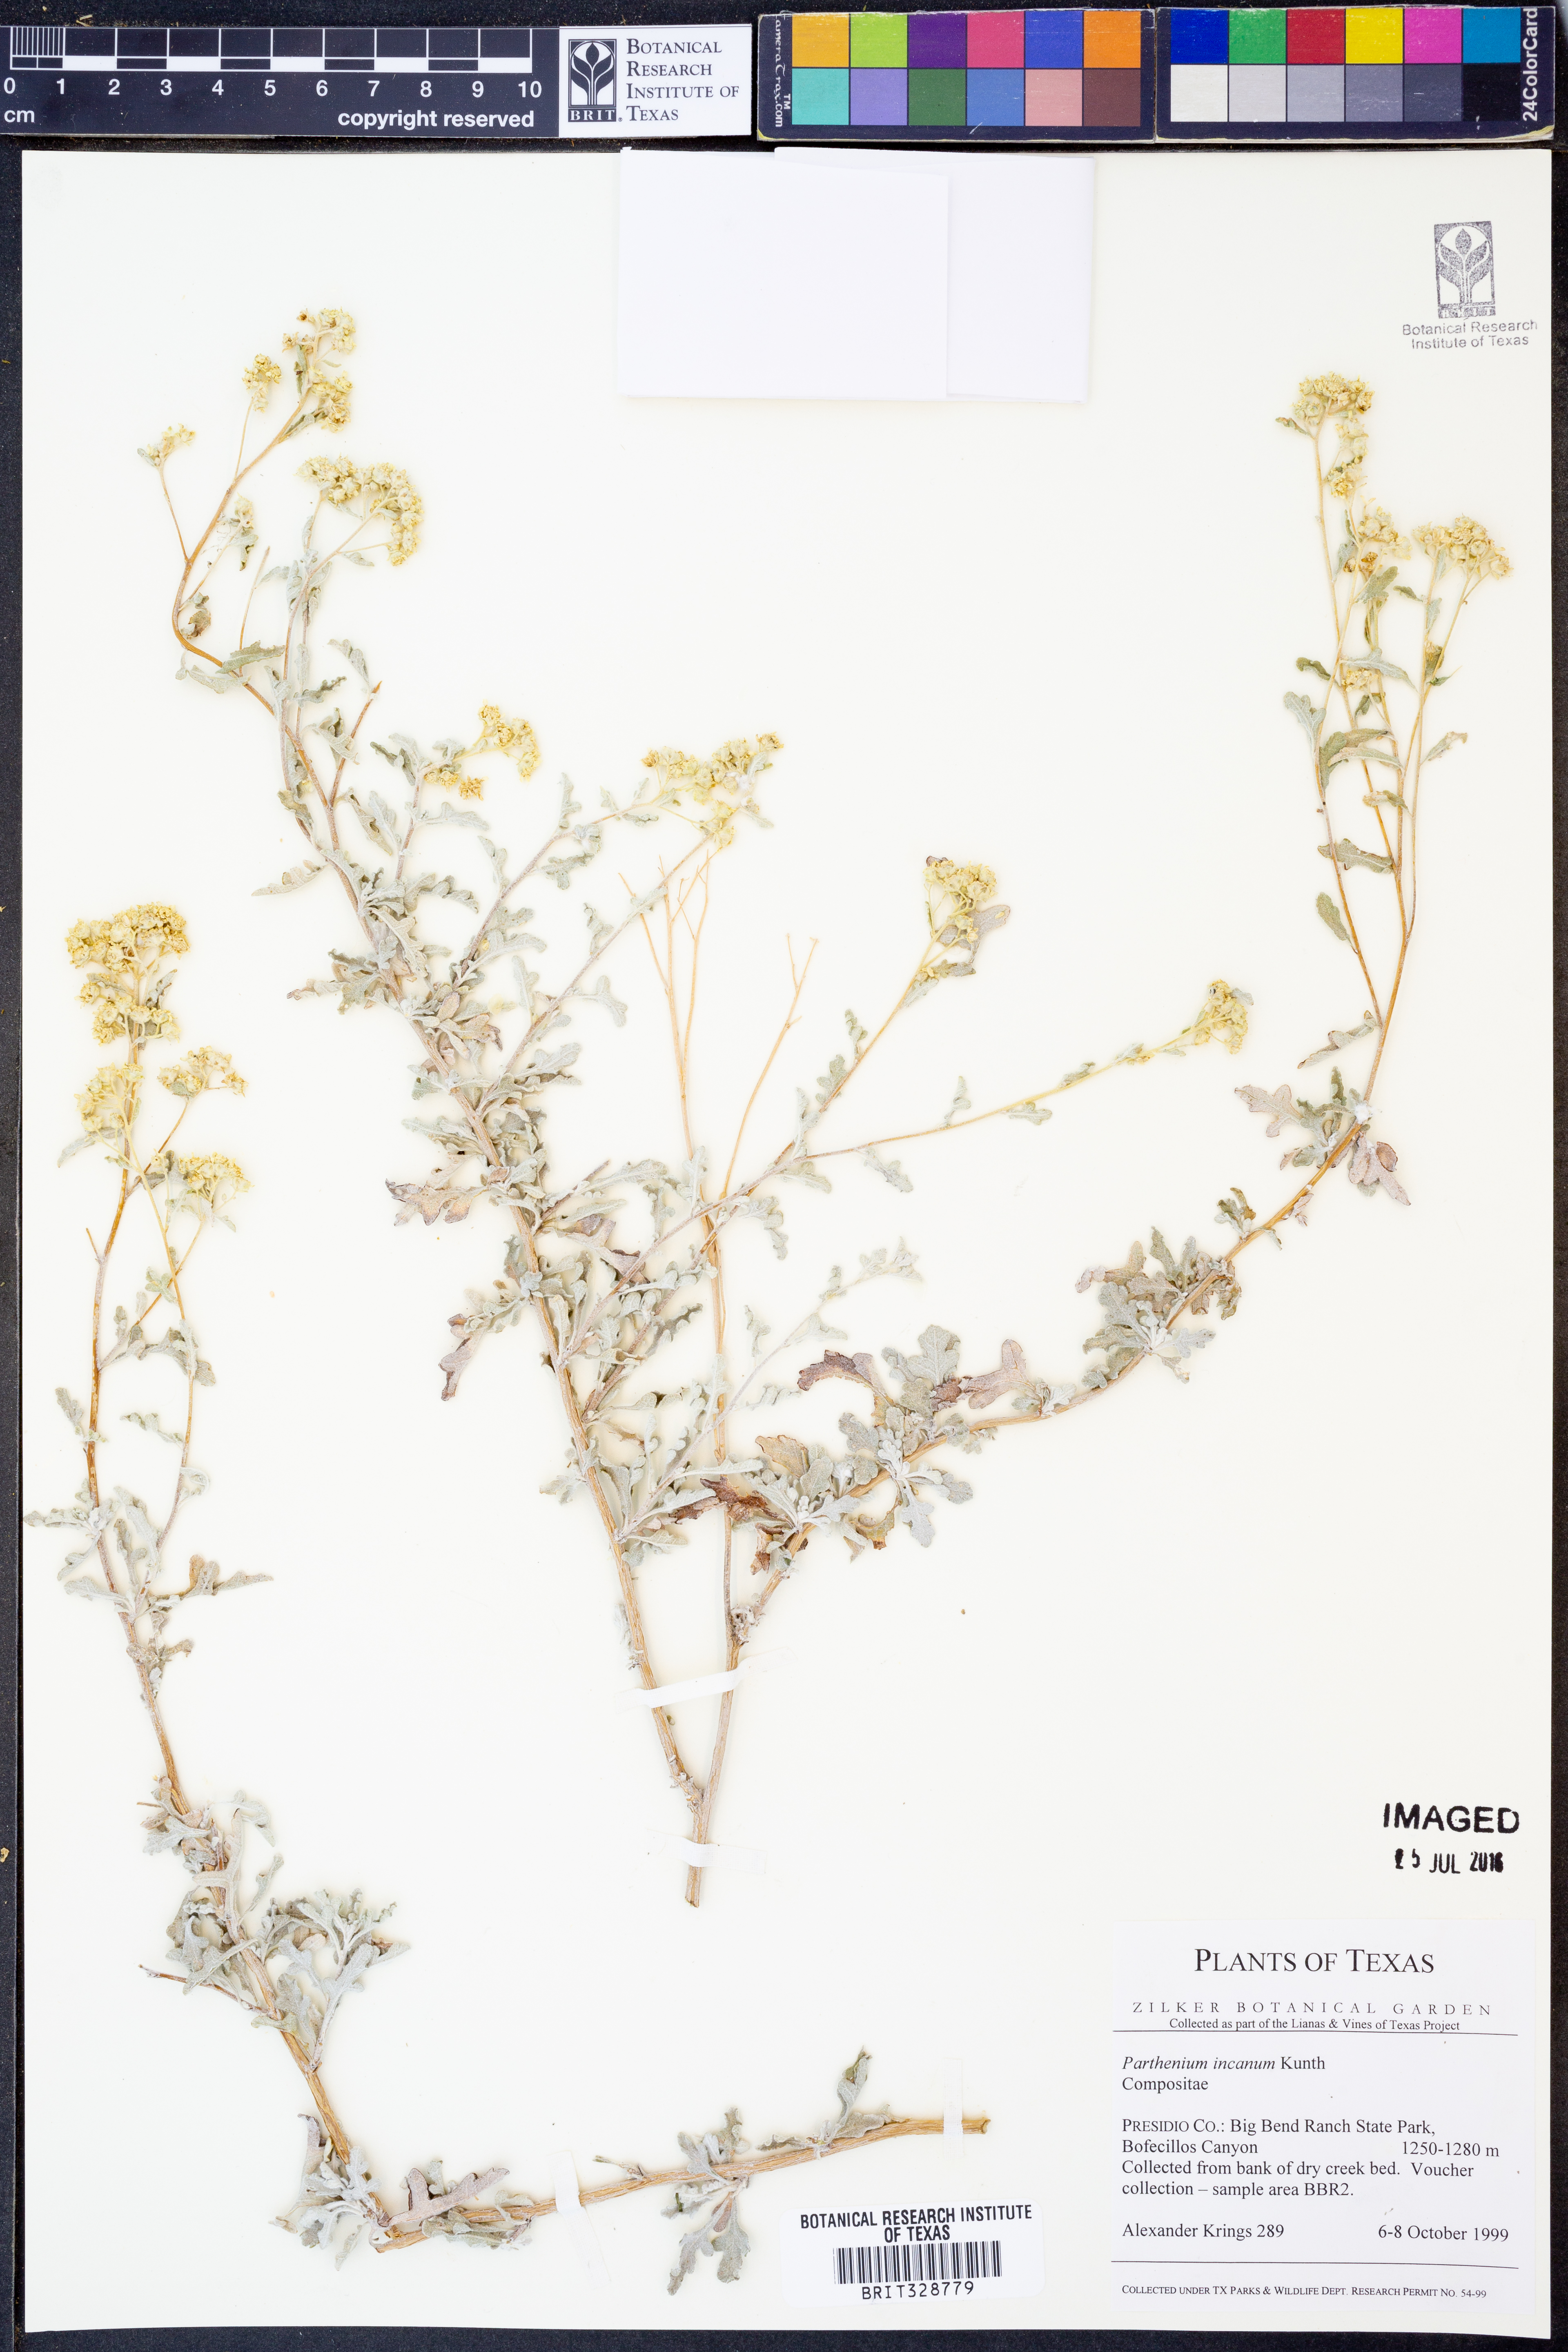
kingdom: Plantae
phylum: Tracheophyta
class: Magnoliopsida
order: Asterales
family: Asteraceae
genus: Parthenium
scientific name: Parthenium incanum
